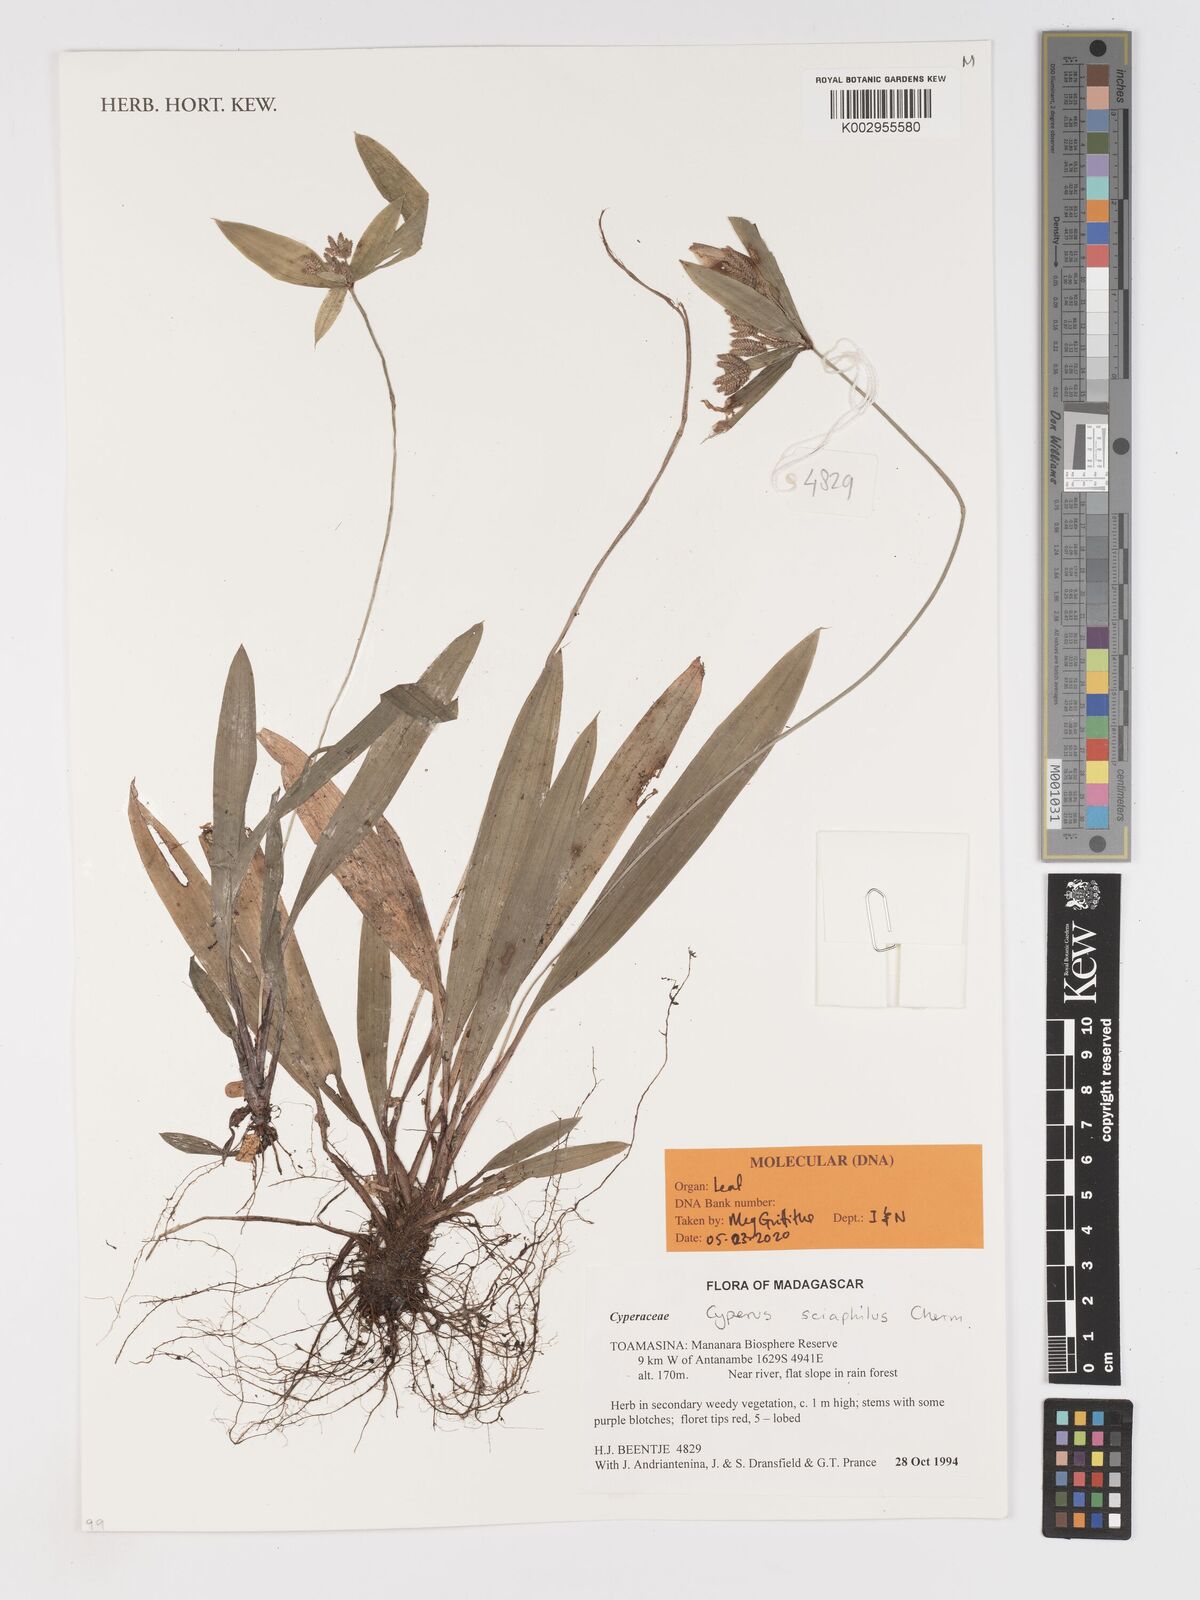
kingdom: Plantae
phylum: Tracheophyta
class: Liliopsida
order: Poales
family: Cyperaceae
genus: Cyperus
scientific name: Cyperus sciaphilus
